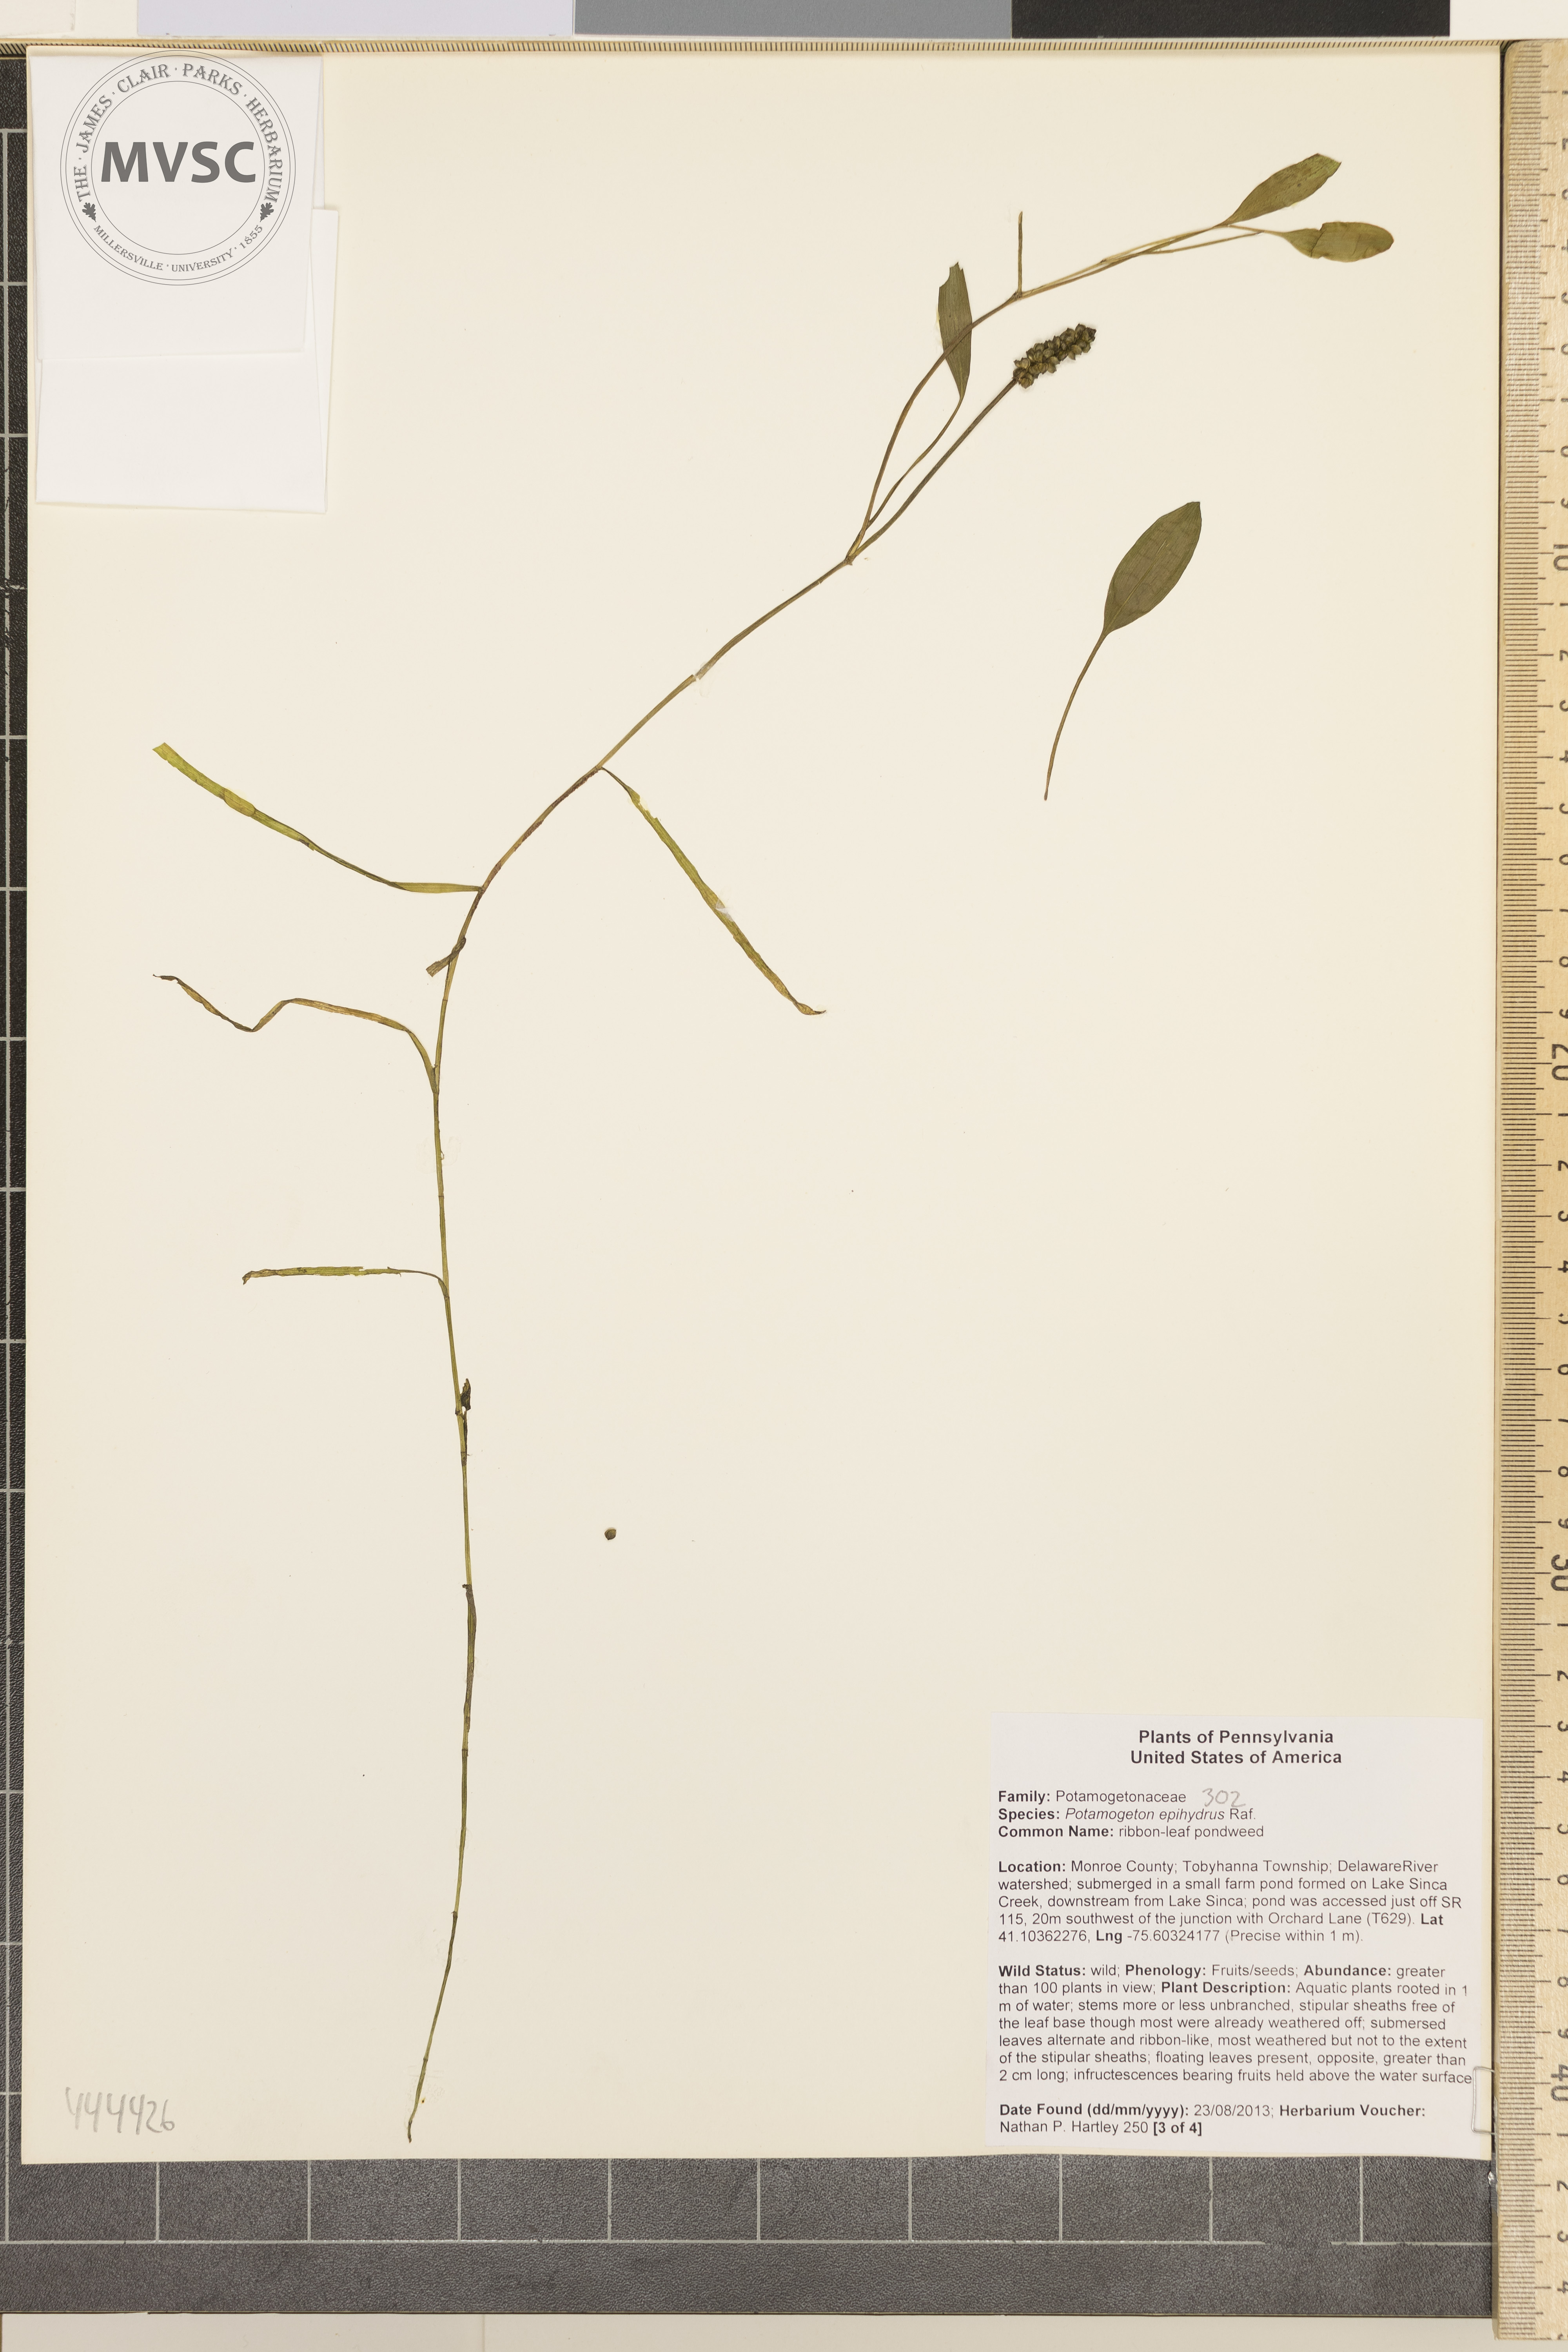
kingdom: Plantae
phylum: Tracheophyta
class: Liliopsida
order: Alismatales
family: Potamogetonaceae
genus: Potamogeton
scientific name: Potamogeton epihydrus
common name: American pondweed
